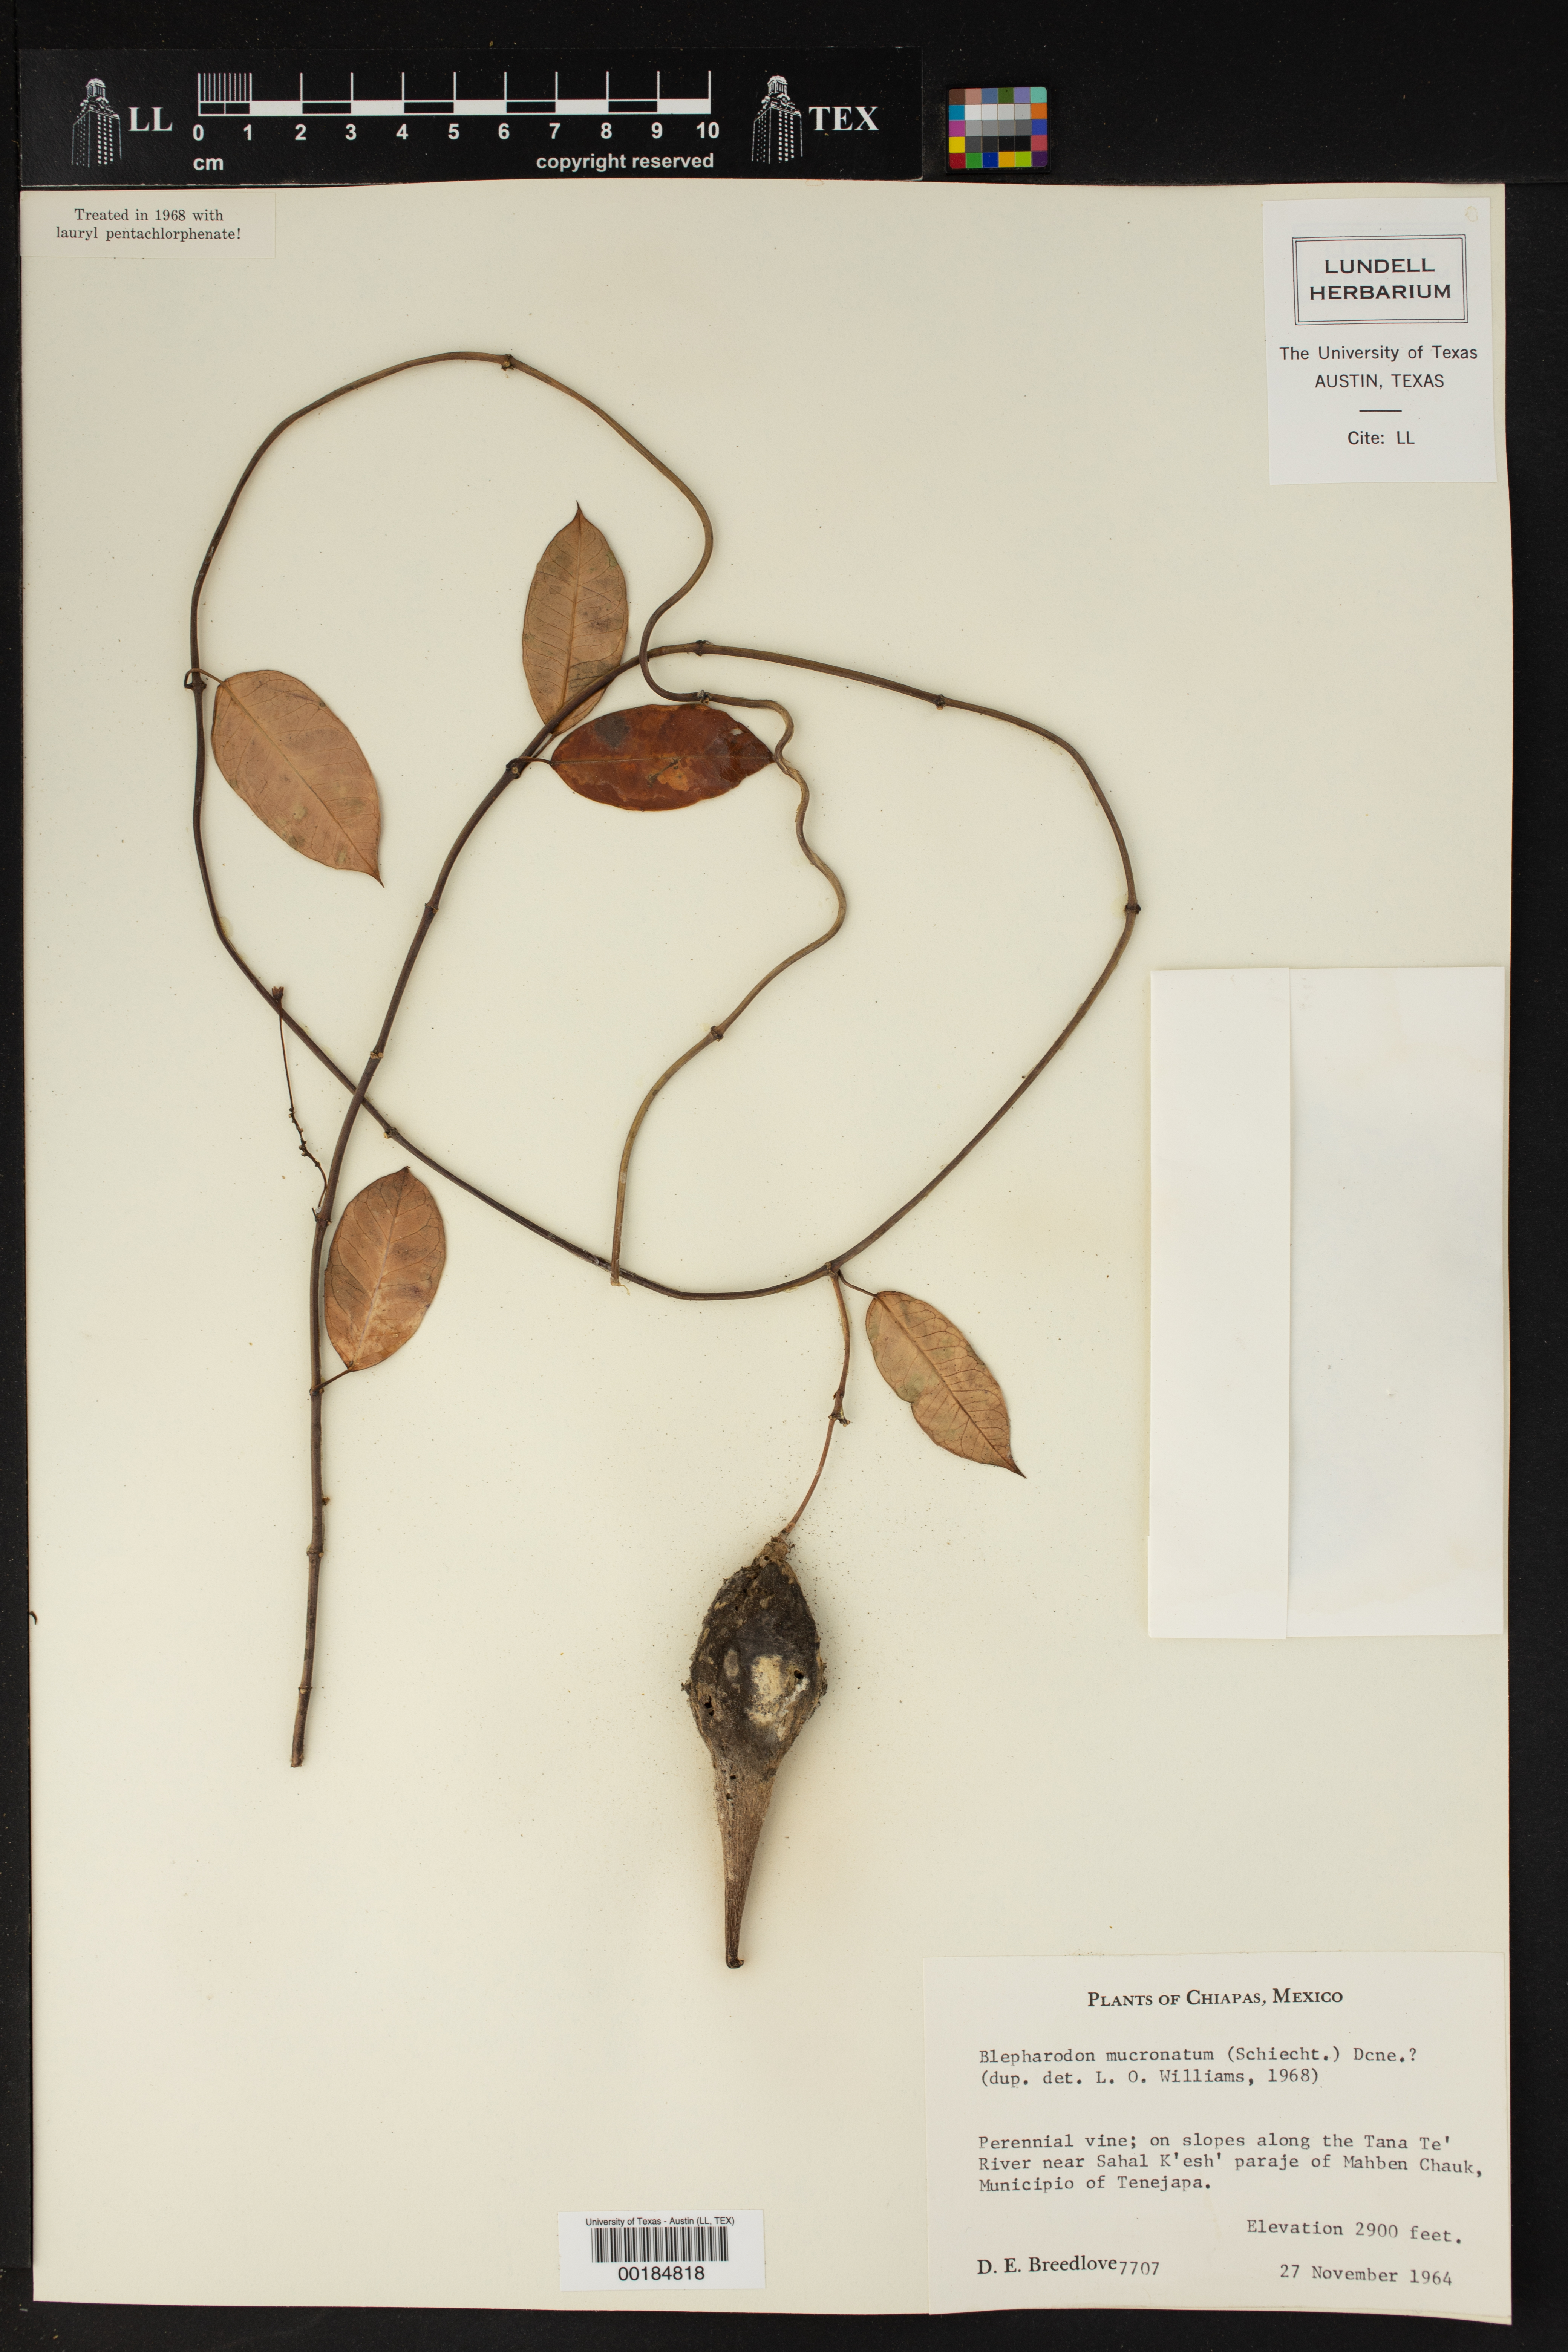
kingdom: Plantae
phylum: Tracheophyta
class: Magnoliopsida
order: Gentianales
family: Apocynaceae
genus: Vailia
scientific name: Vailia anomala
